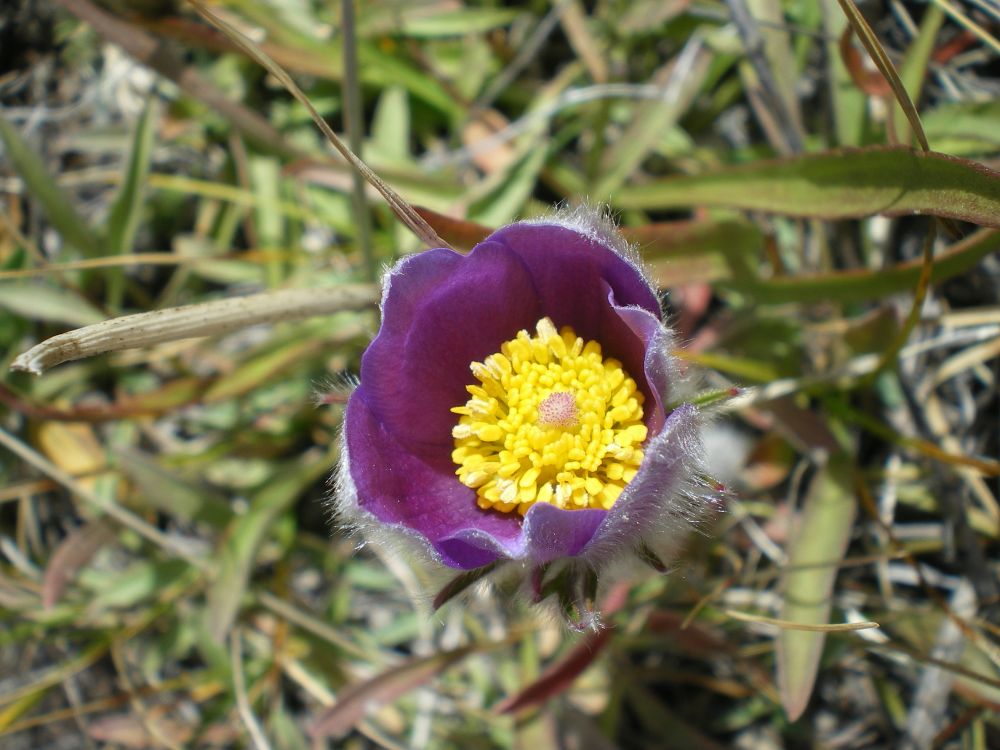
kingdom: Plantae
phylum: Tracheophyta
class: Magnoliopsida
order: Ranunculales
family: Ranunculaceae
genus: Pulsatilla
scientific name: Pulsatilla patens
